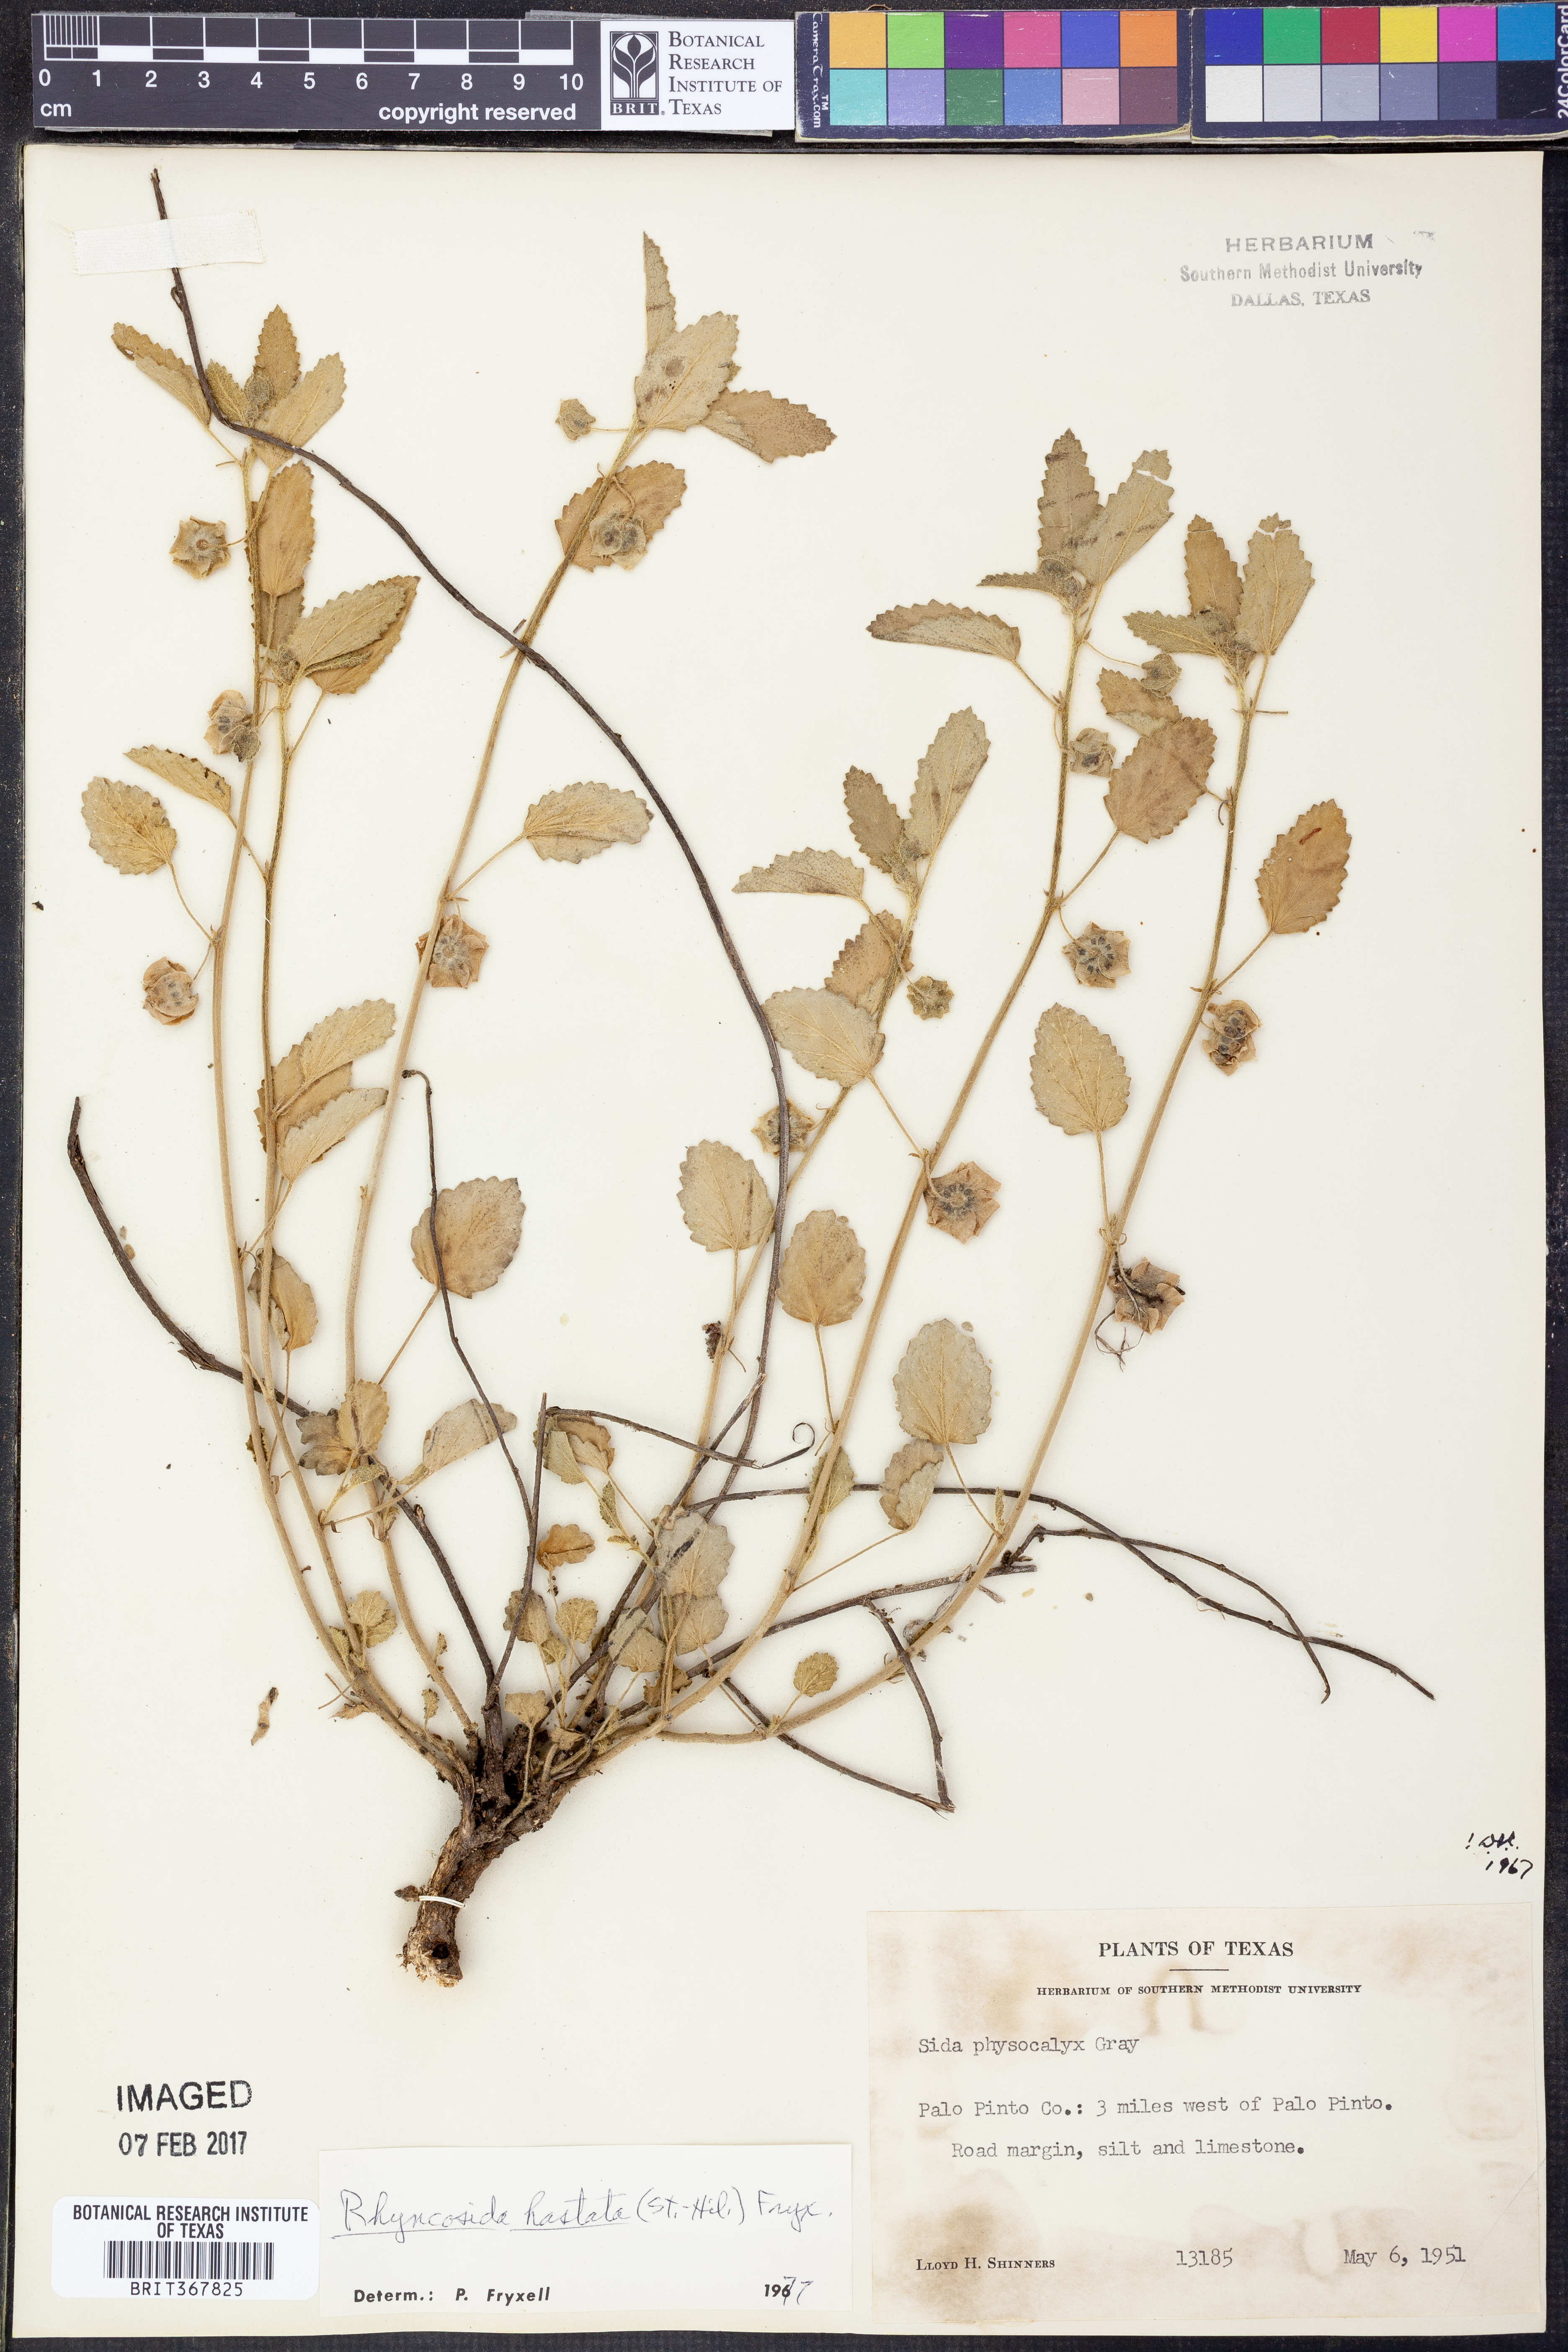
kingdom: Plantae
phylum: Tracheophyta
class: Magnoliopsida
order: Malvales
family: Malvaceae
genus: Rhynchosida
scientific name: Rhynchosida
